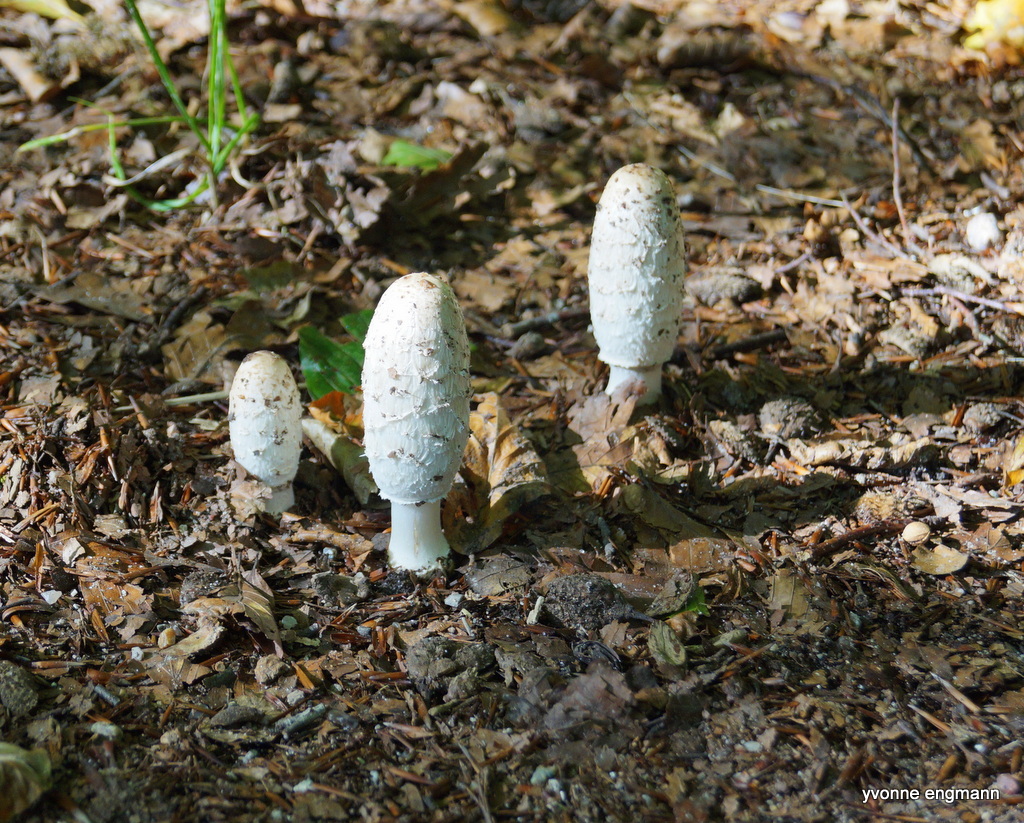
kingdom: Fungi
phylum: Basidiomycota
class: Agaricomycetes
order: Agaricales
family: Agaricaceae
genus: Coprinus
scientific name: Coprinus comatus
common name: stor parykhat
